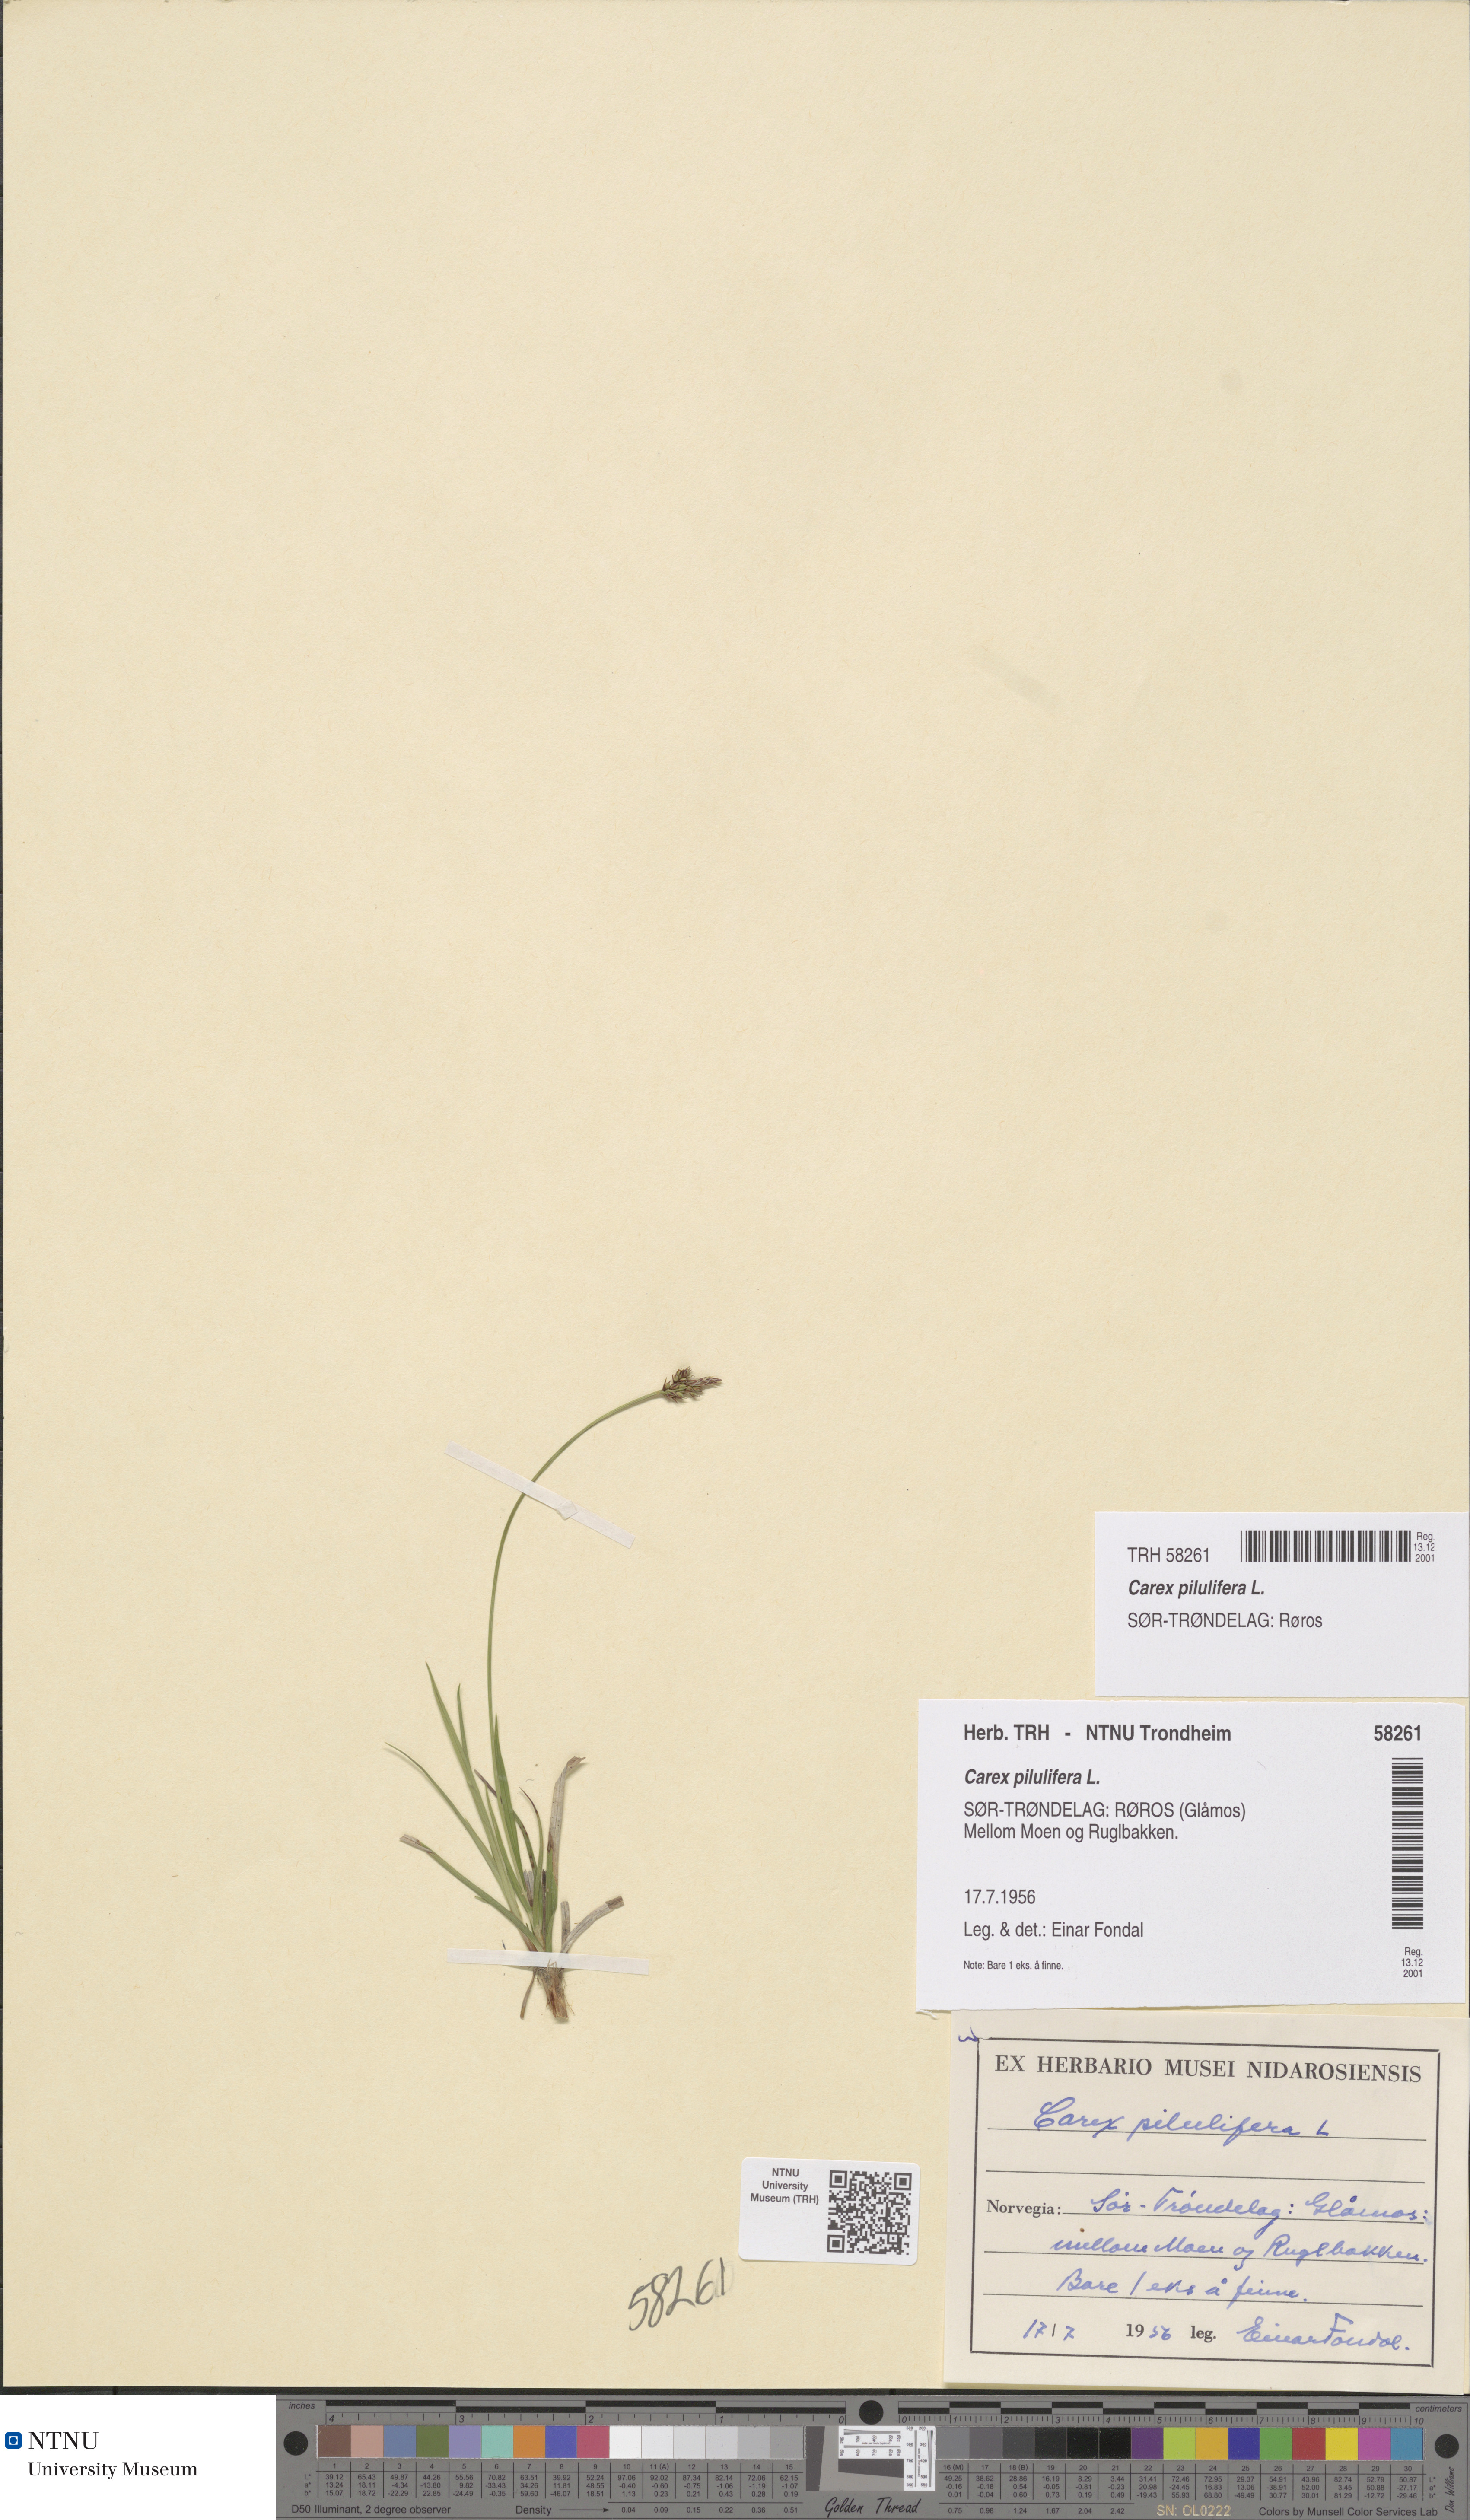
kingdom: Plantae
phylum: Tracheophyta
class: Liliopsida
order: Poales
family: Cyperaceae
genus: Carex
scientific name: Carex pilulifera
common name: Pill sedge
